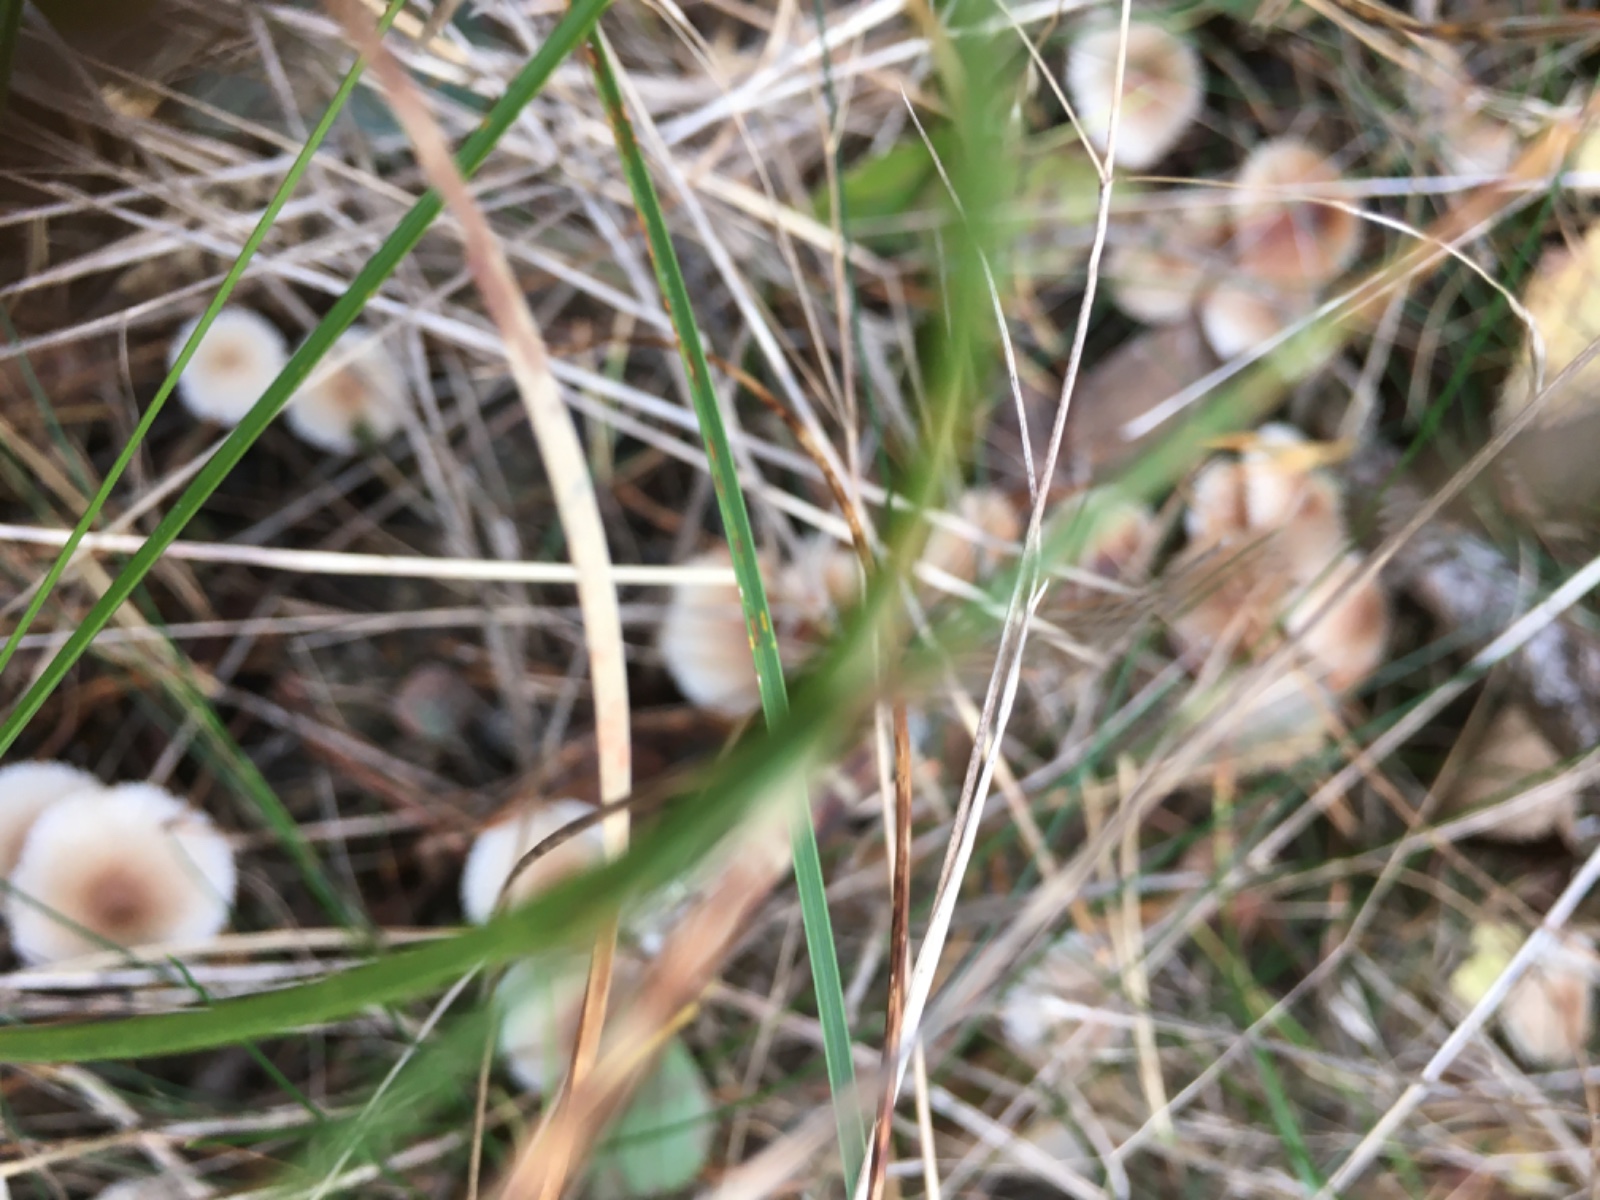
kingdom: Fungi
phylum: Basidiomycota
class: Agaricomycetes
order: Agaricales
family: Mycenaceae
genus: Mycena
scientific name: Mycena zephirus
